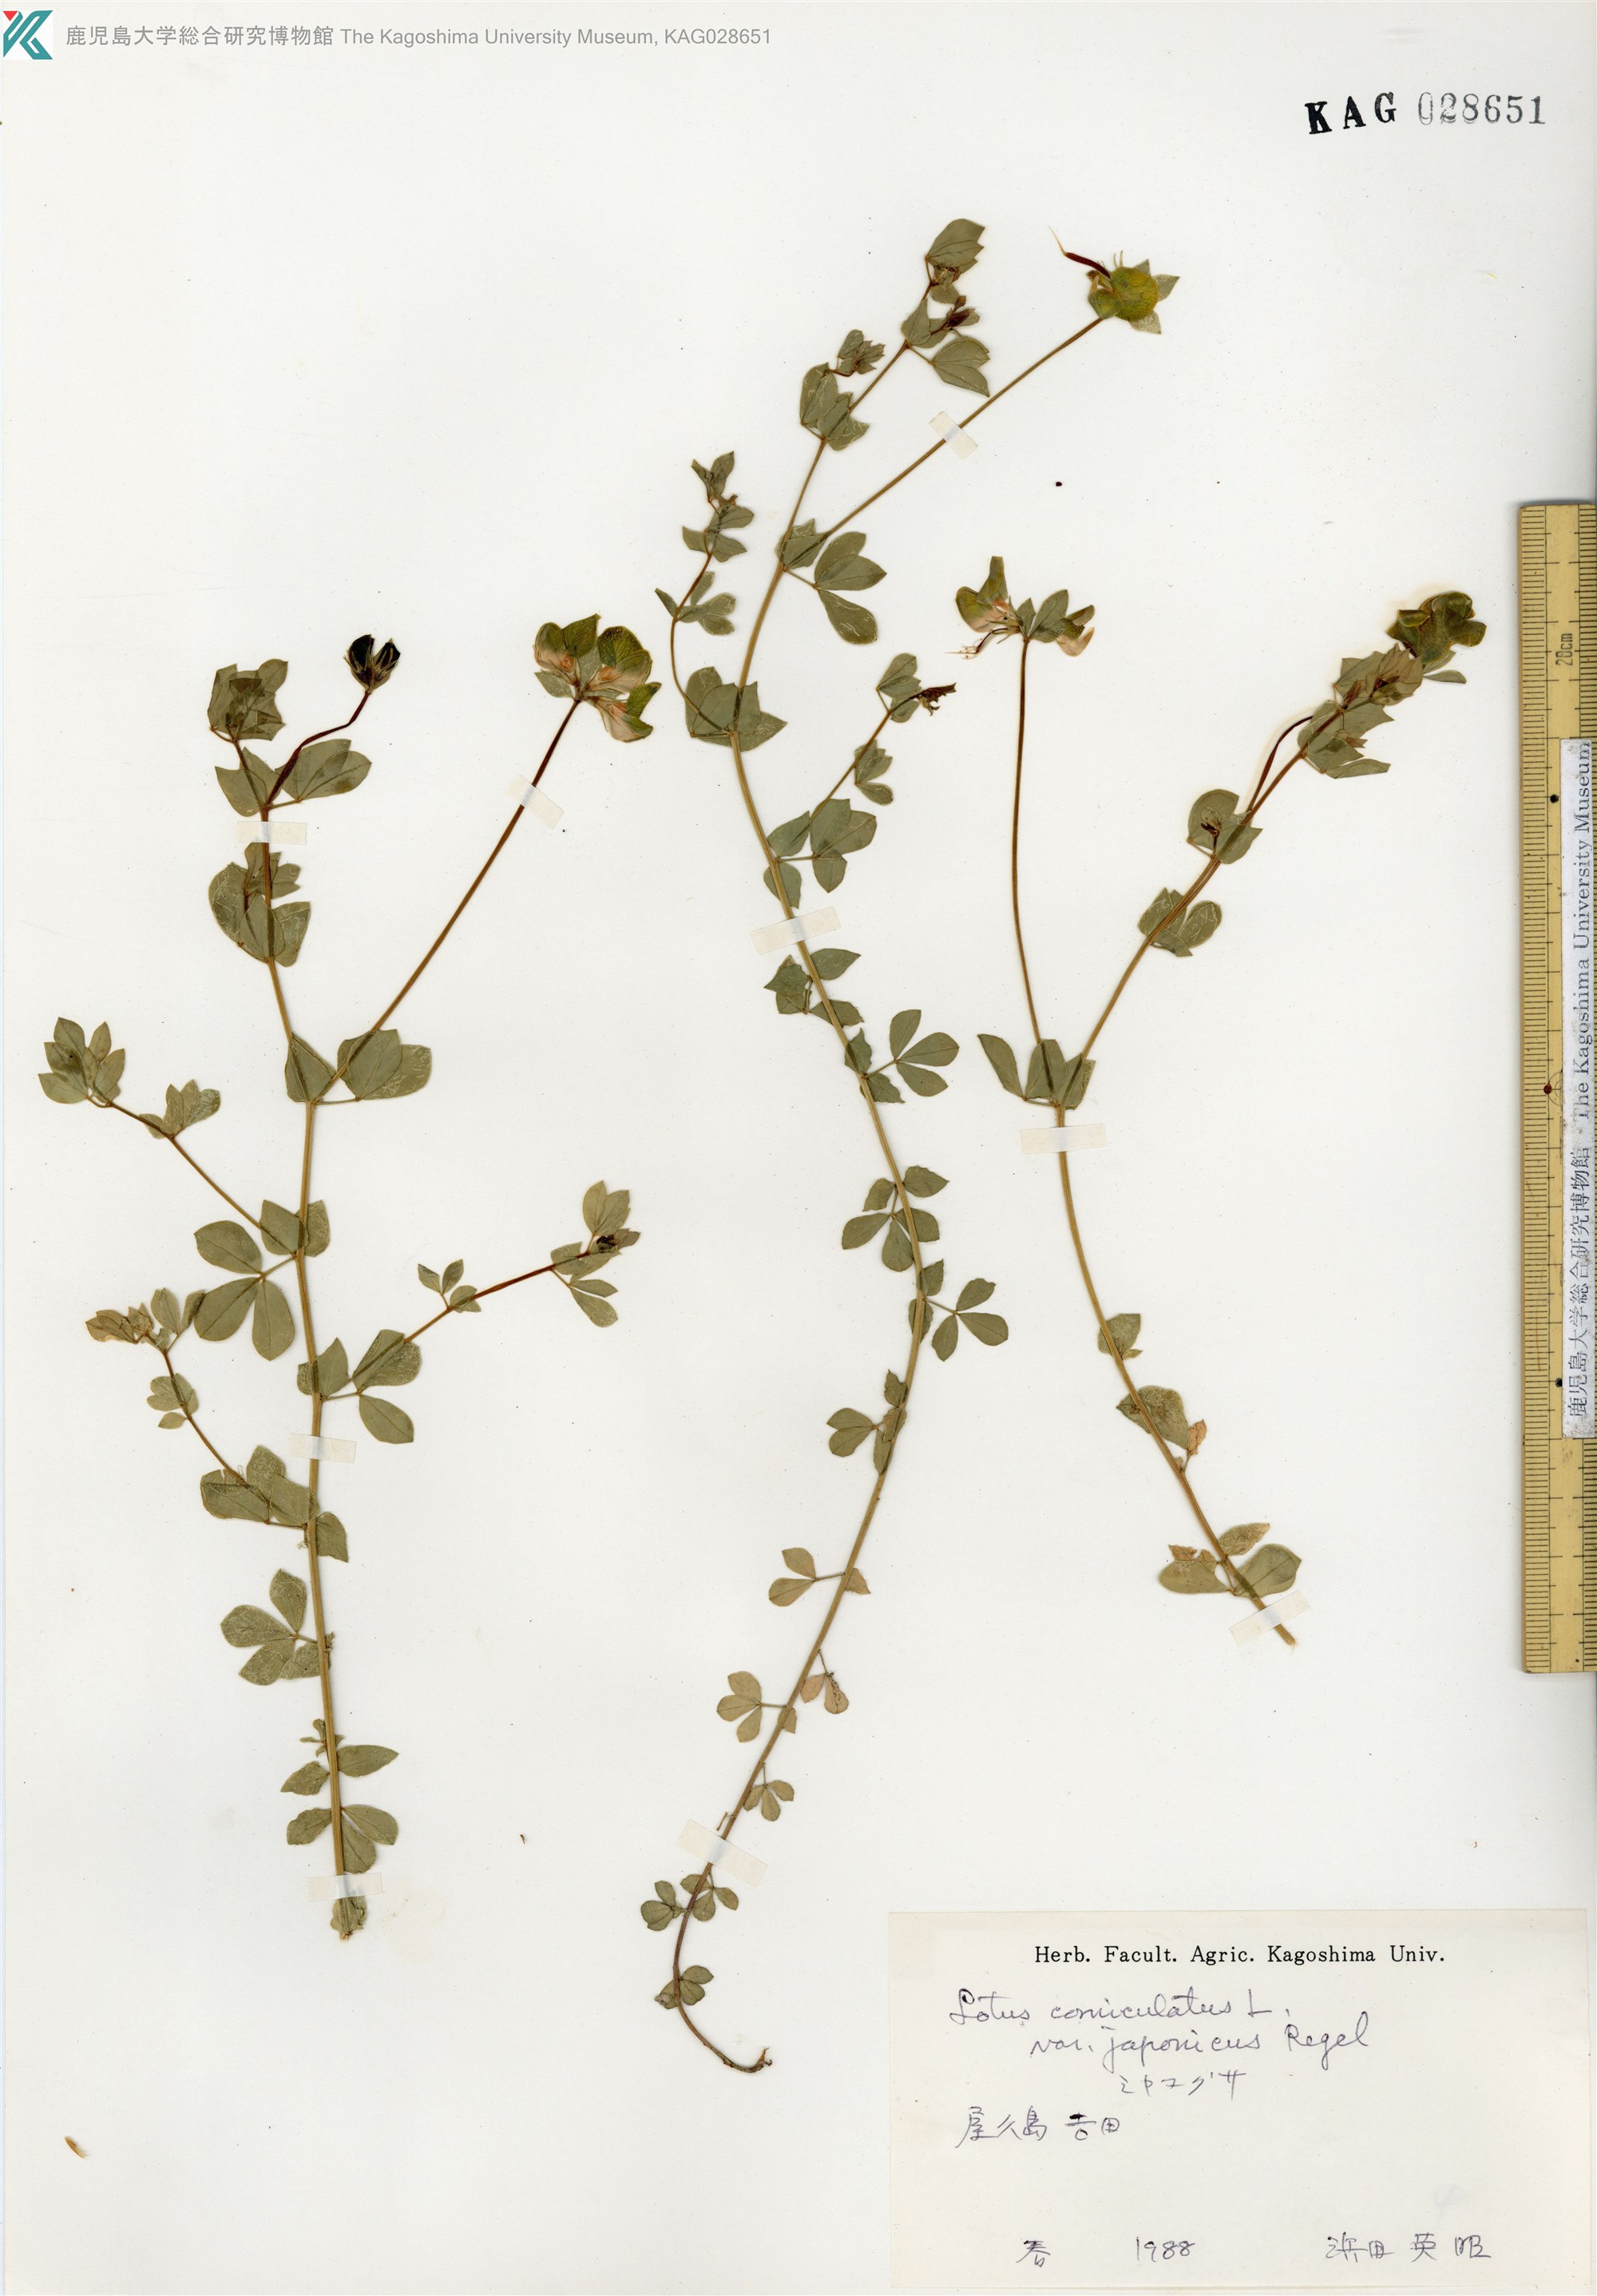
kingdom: Plantae
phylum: Tracheophyta
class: Magnoliopsida
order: Fabales
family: Fabaceae
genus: Lotus
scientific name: Lotus japonicus
